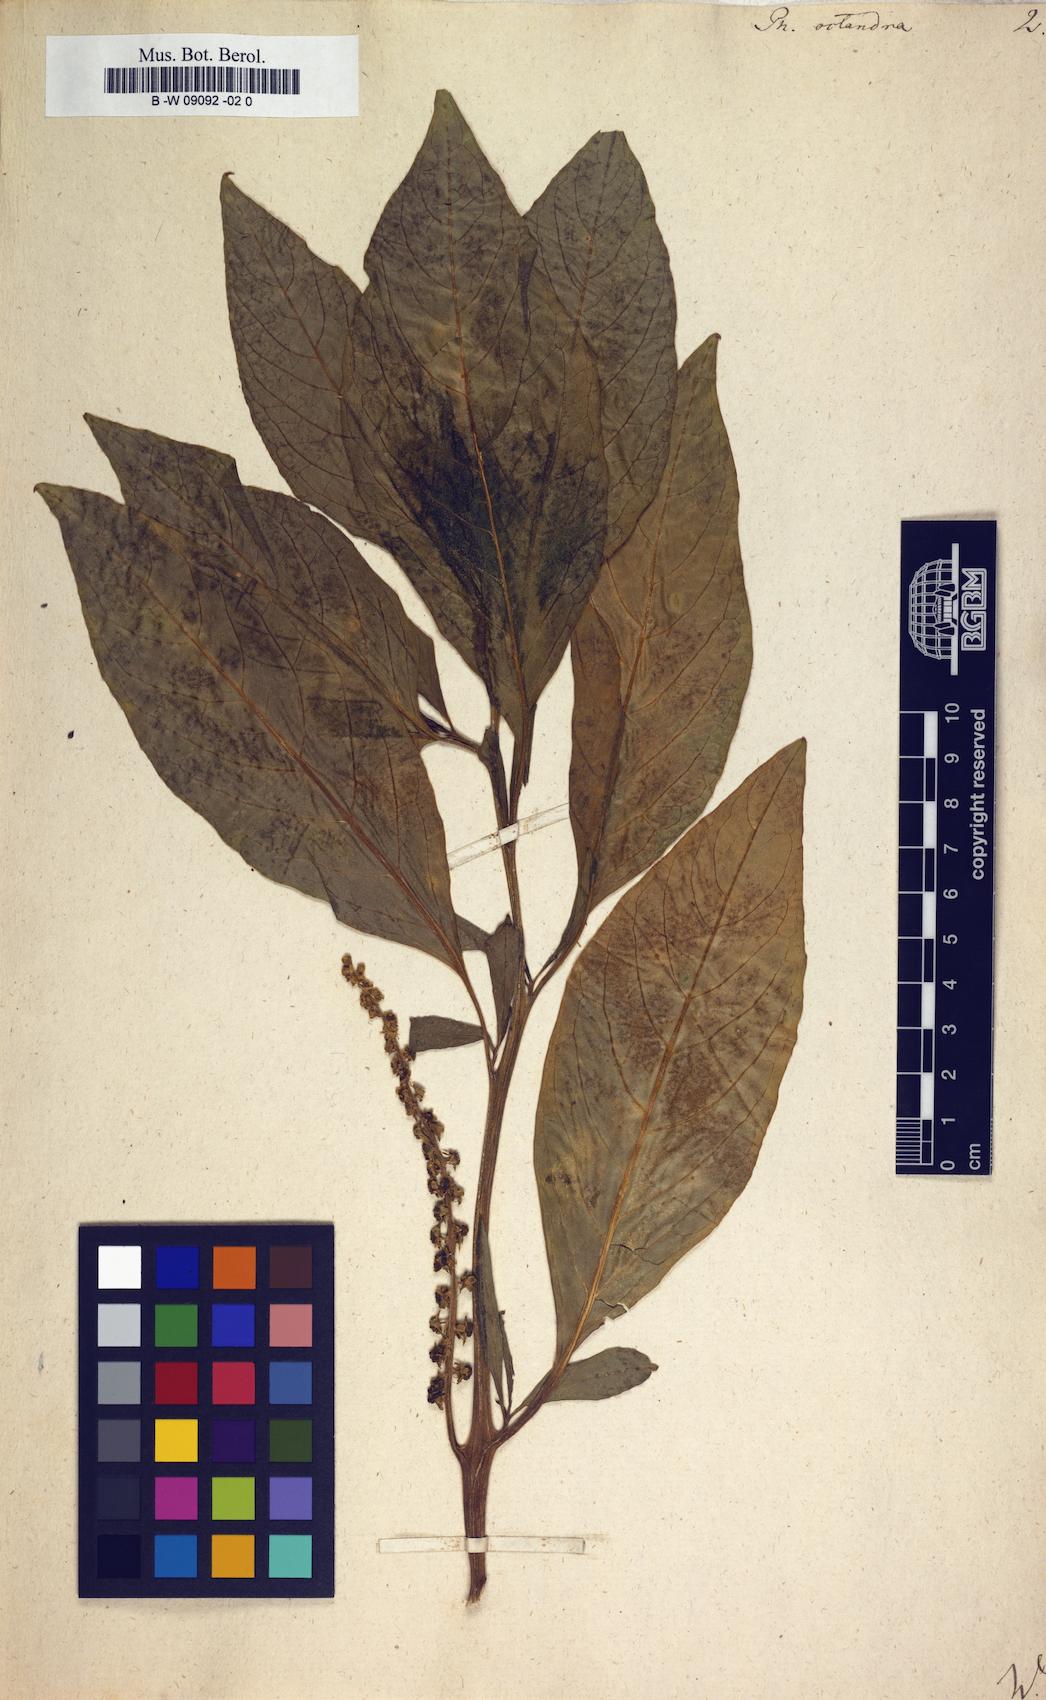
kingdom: Plantae
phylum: Tracheophyta
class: Magnoliopsida
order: Caryophyllales
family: Phytolaccaceae
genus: Phytolacca
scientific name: Phytolacca icosandra
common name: Button pokeweed
